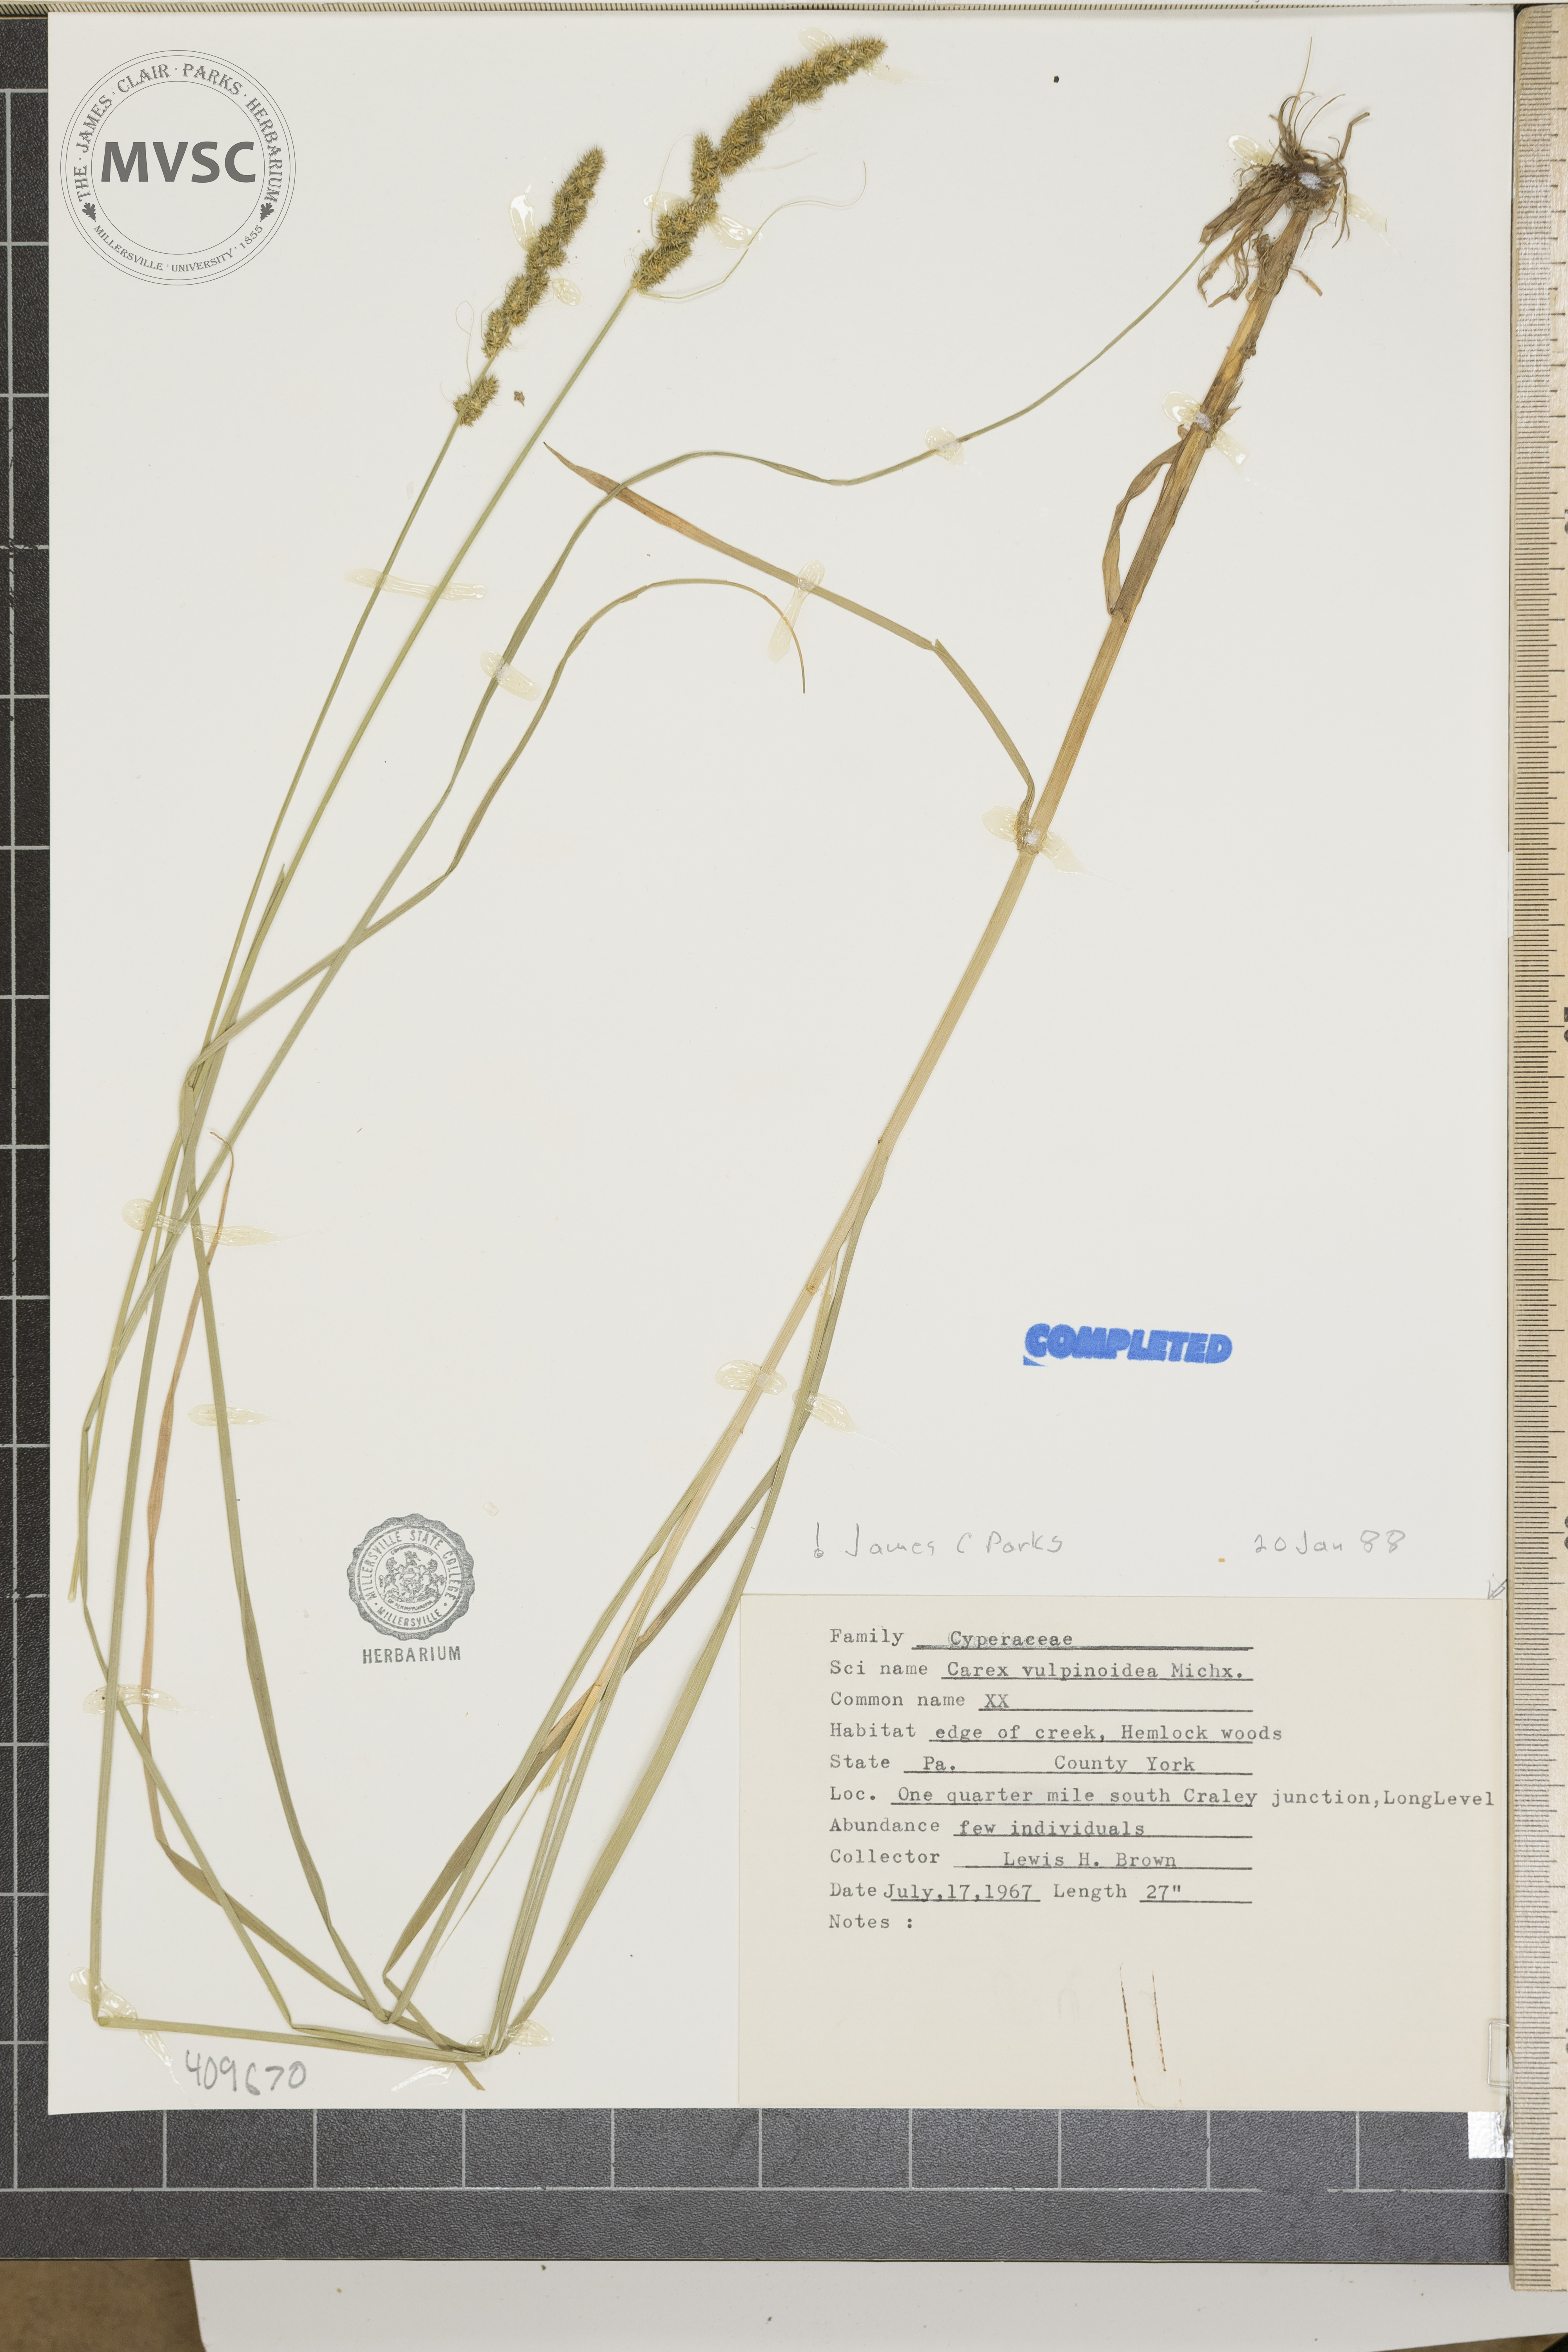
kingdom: Plantae
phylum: Tracheophyta
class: Liliopsida
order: Poales
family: Cyperaceae
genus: Carex
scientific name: Carex vulpinoidea
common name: American fox-sedge
